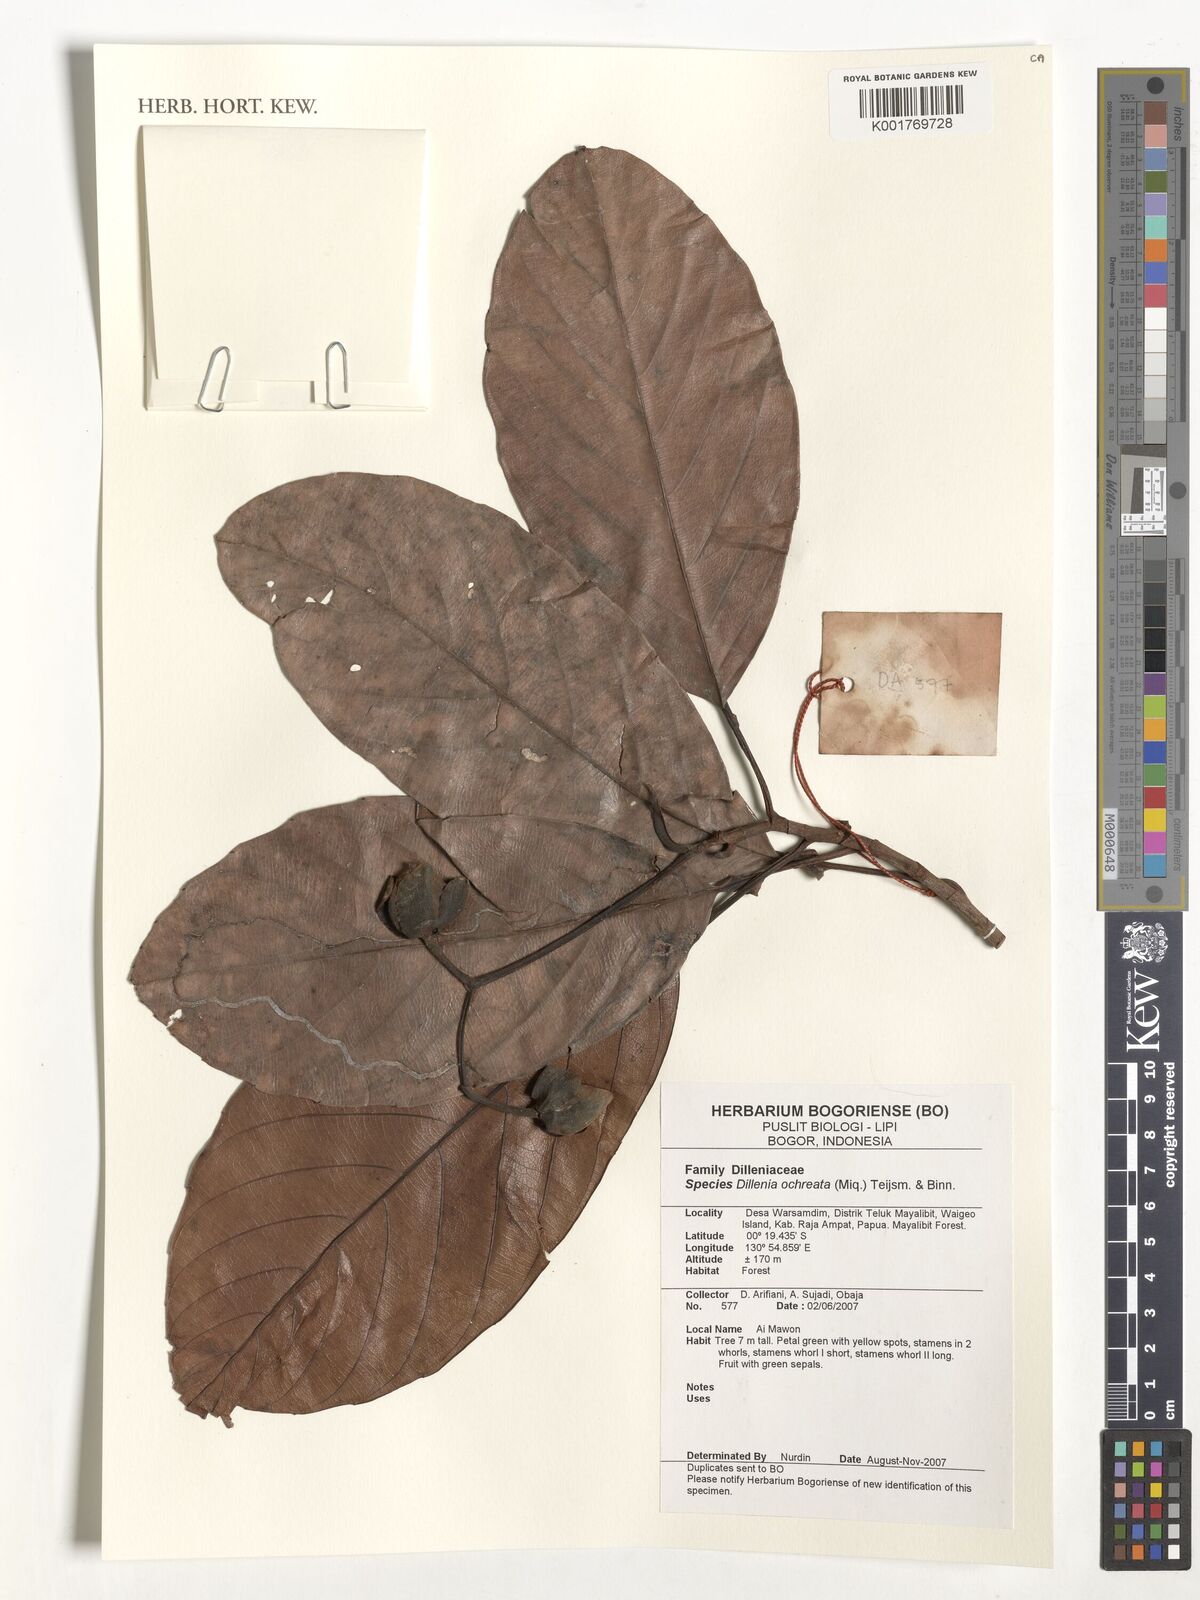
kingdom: Plantae
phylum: Tracheophyta
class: Magnoliopsida
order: Dilleniales
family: Dilleniaceae
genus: Dillenia
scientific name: Dillenia ochreata
